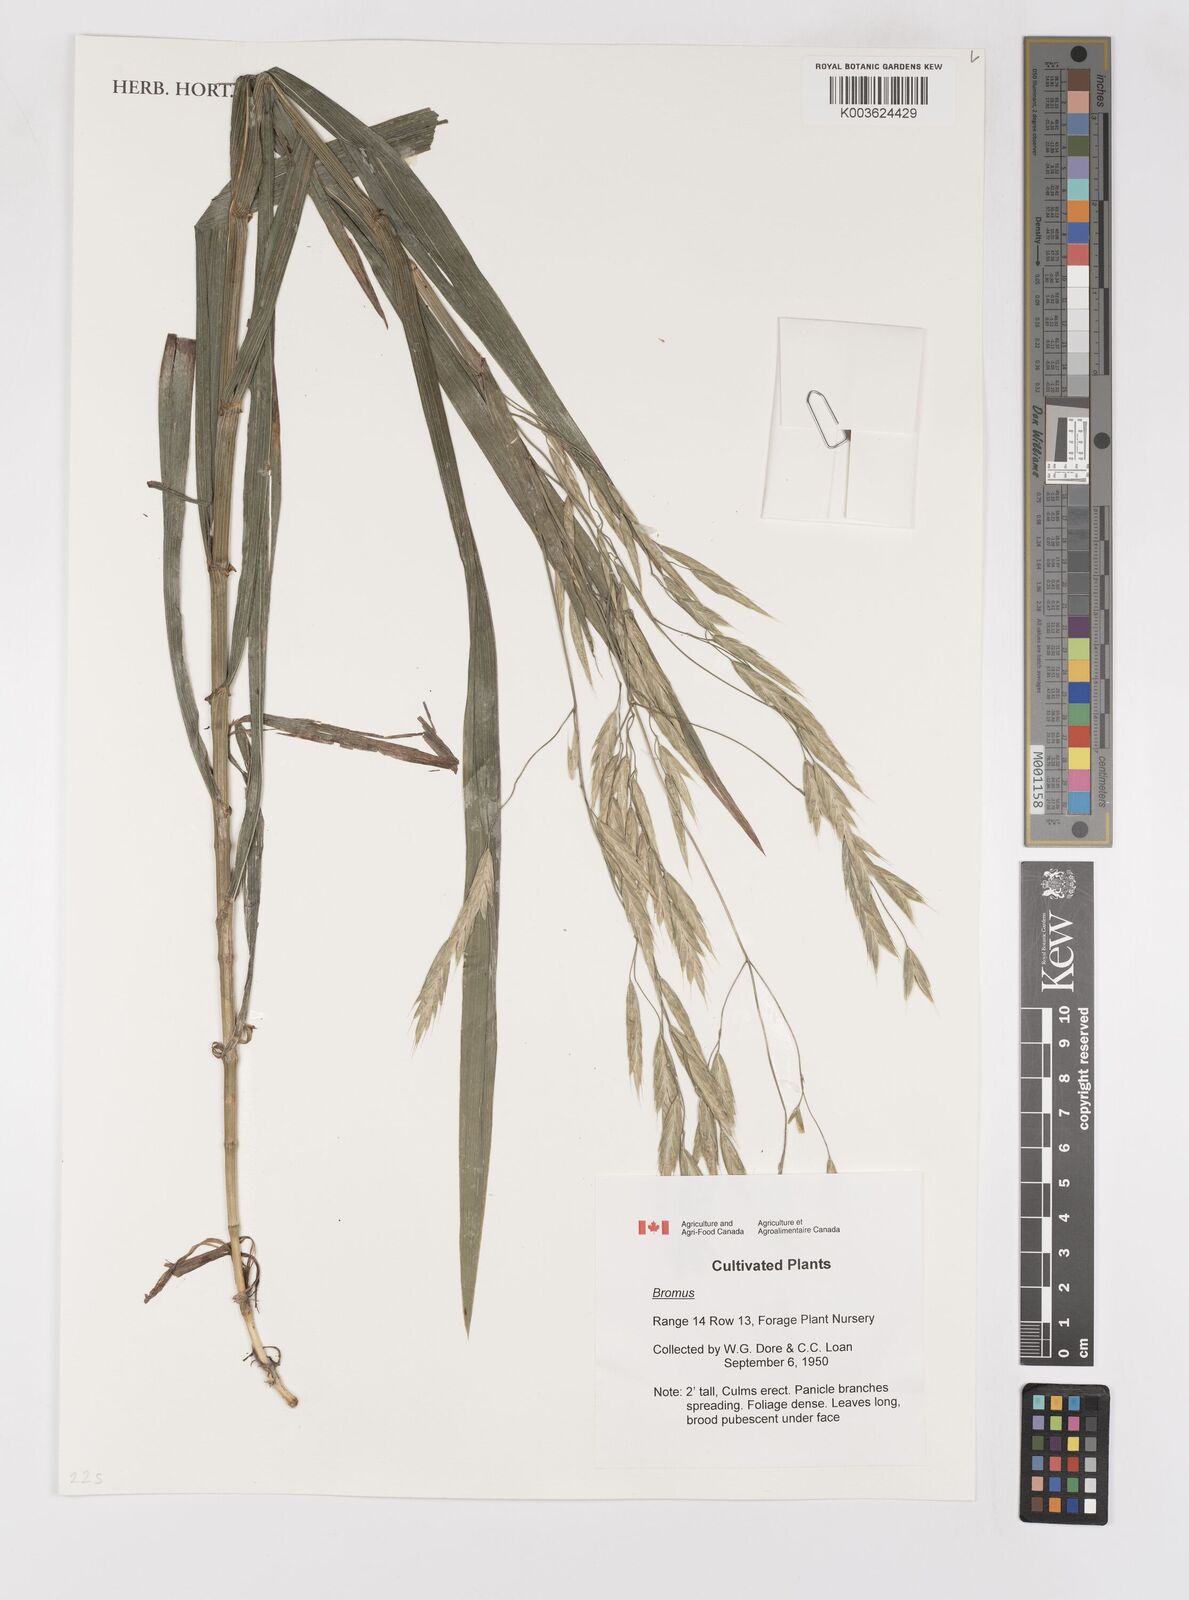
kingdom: Plantae
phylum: Tracheophyta
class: Liliopsida
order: Poales
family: Poaceae
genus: Bromus
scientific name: Bromus
